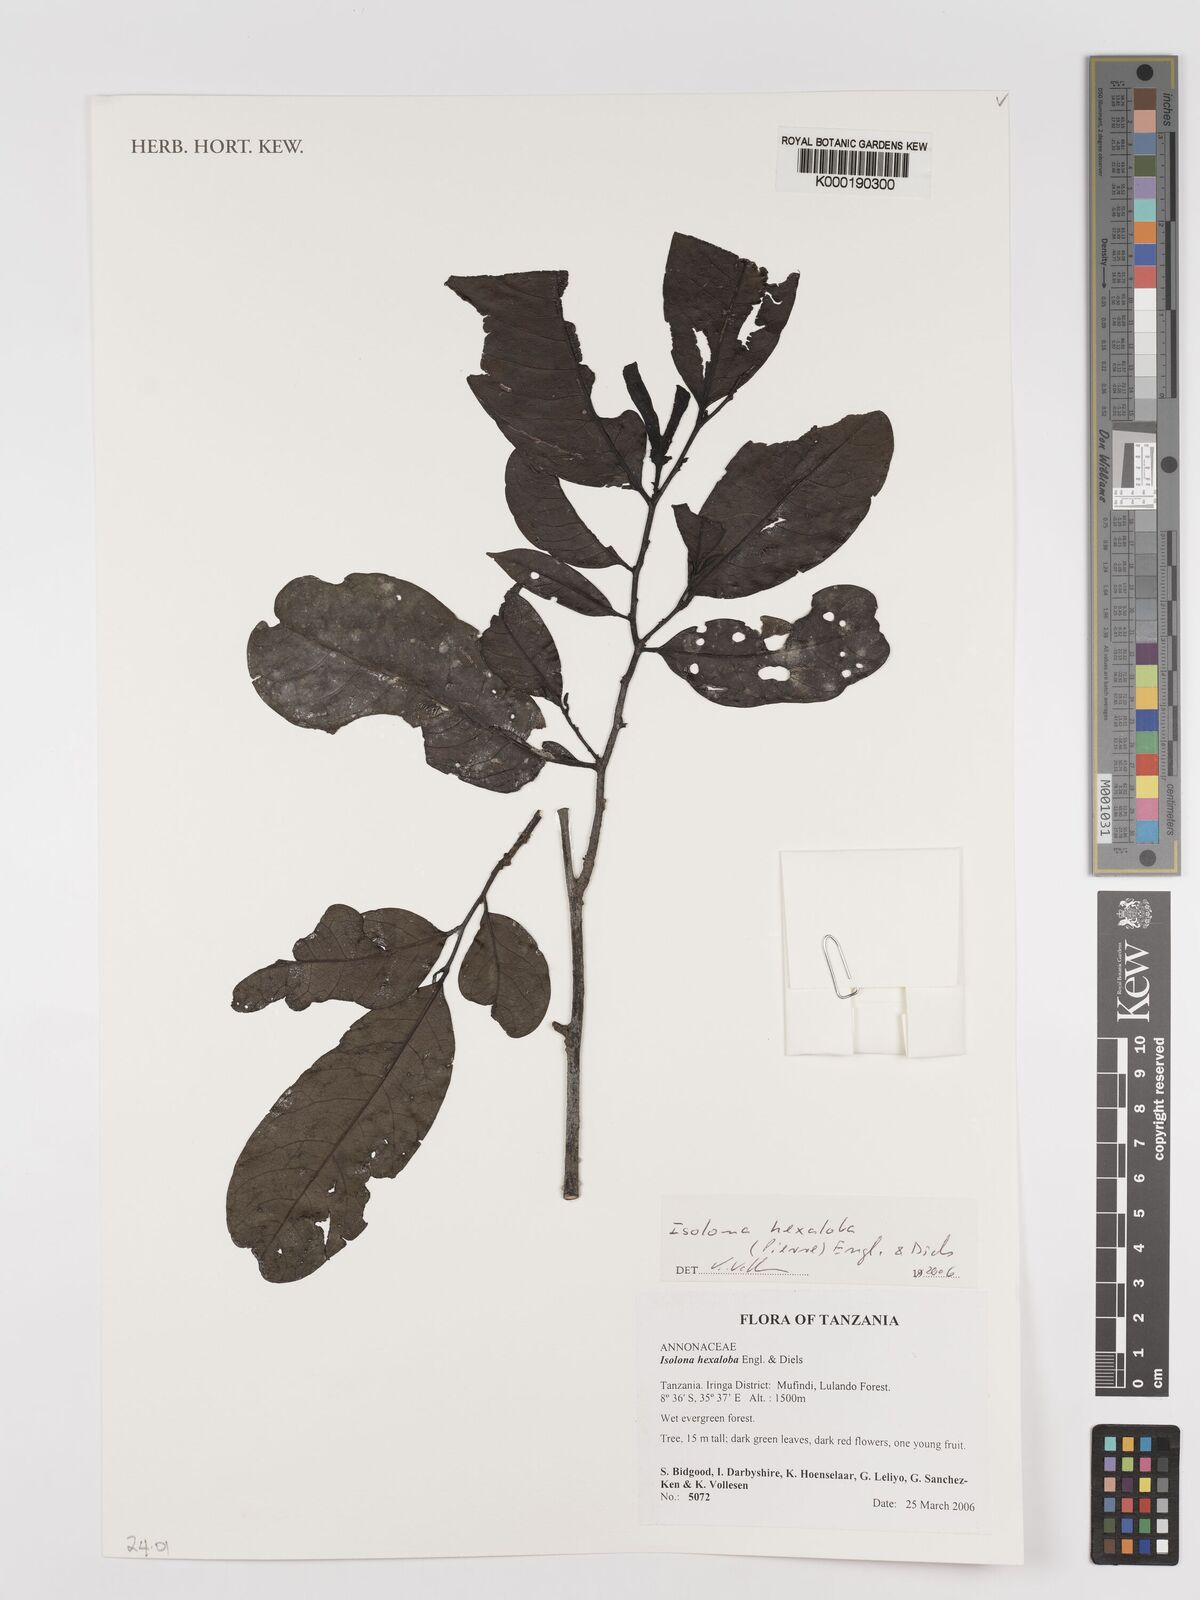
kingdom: Plantae
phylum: Tracheophyta
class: Magnoliopsida
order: Magnoliales
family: Annonaceae
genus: Isolona
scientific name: Isolona hexaloba
